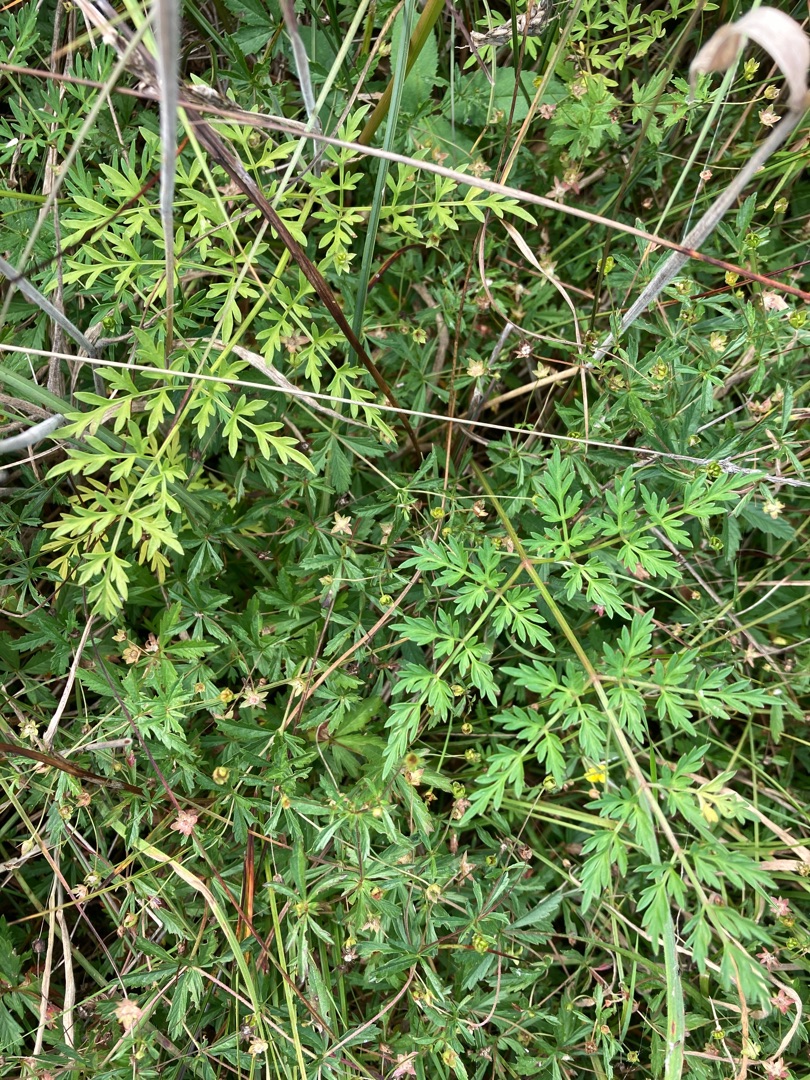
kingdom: Plantae
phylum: Tracheophyta
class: Magnoliopsida
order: Apiales
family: Apiaceae
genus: Thysselinum
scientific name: Thysselinum palustre
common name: Kær-svovlrod
